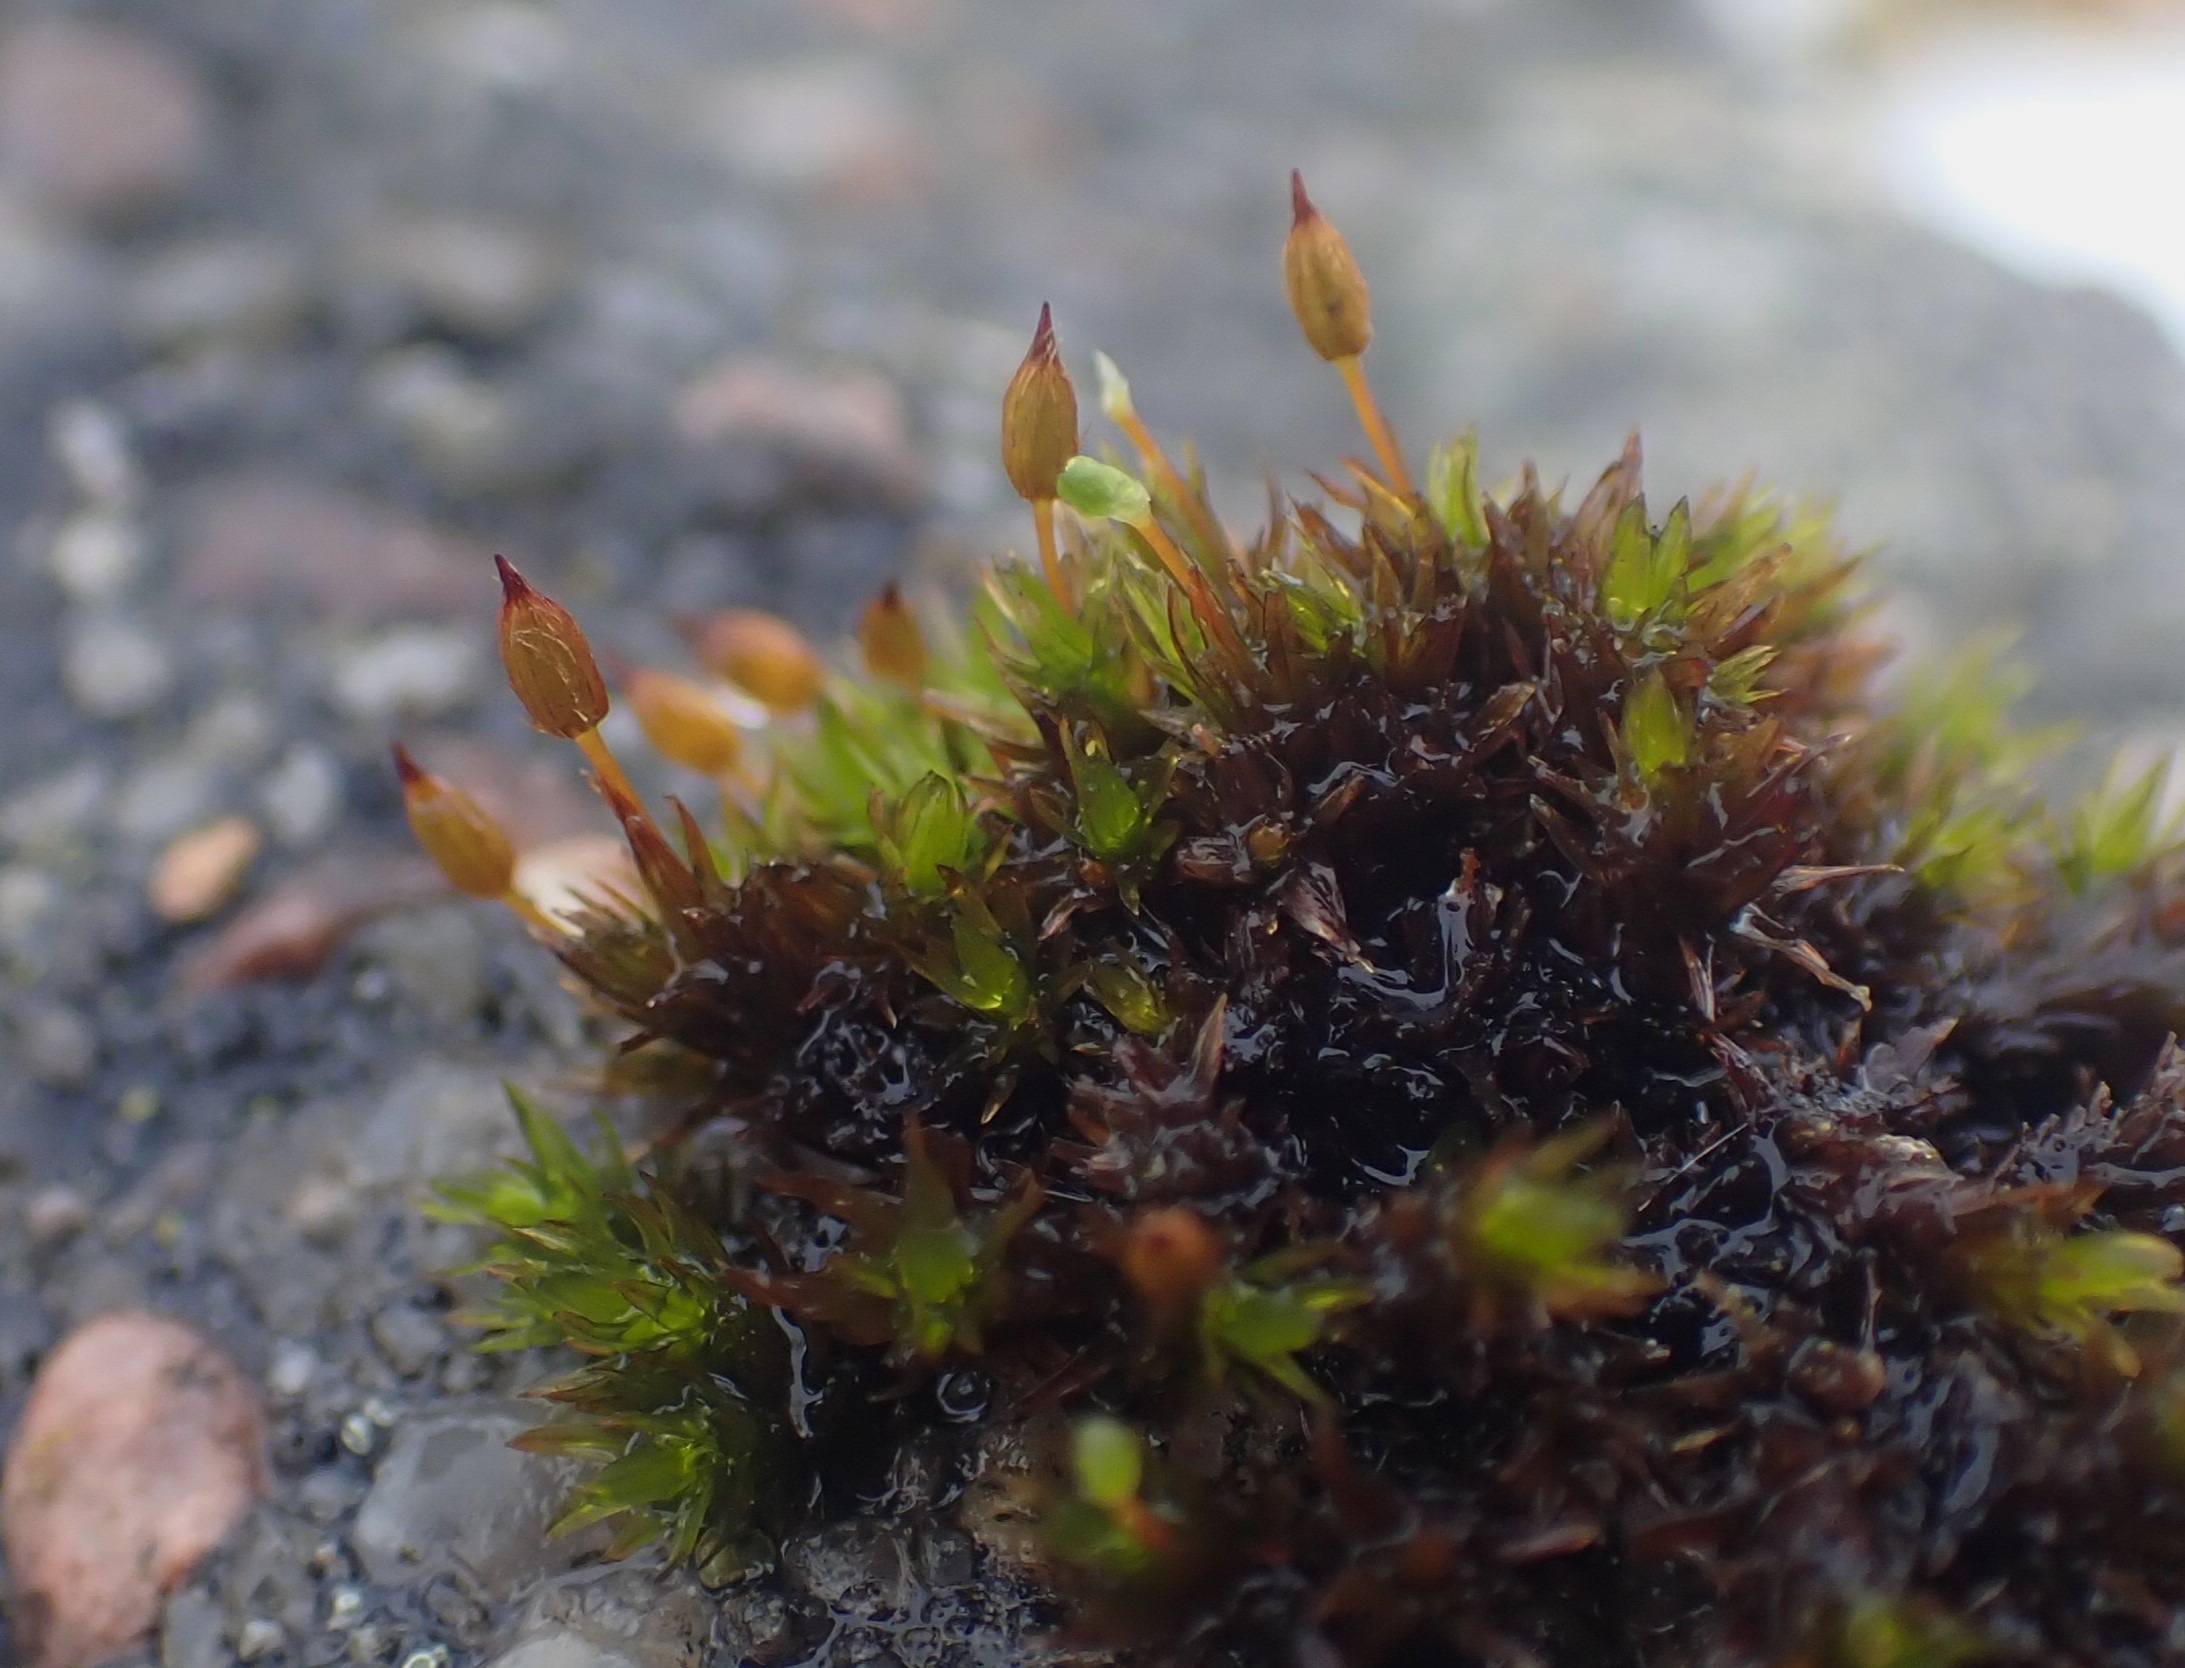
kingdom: Plantae
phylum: Bryophyta
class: Bryopsida
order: Orthotrichales
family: Orthotrichaceae
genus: Orthotrichum
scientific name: Orthotrichum anomalum
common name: Mørk furehætte
